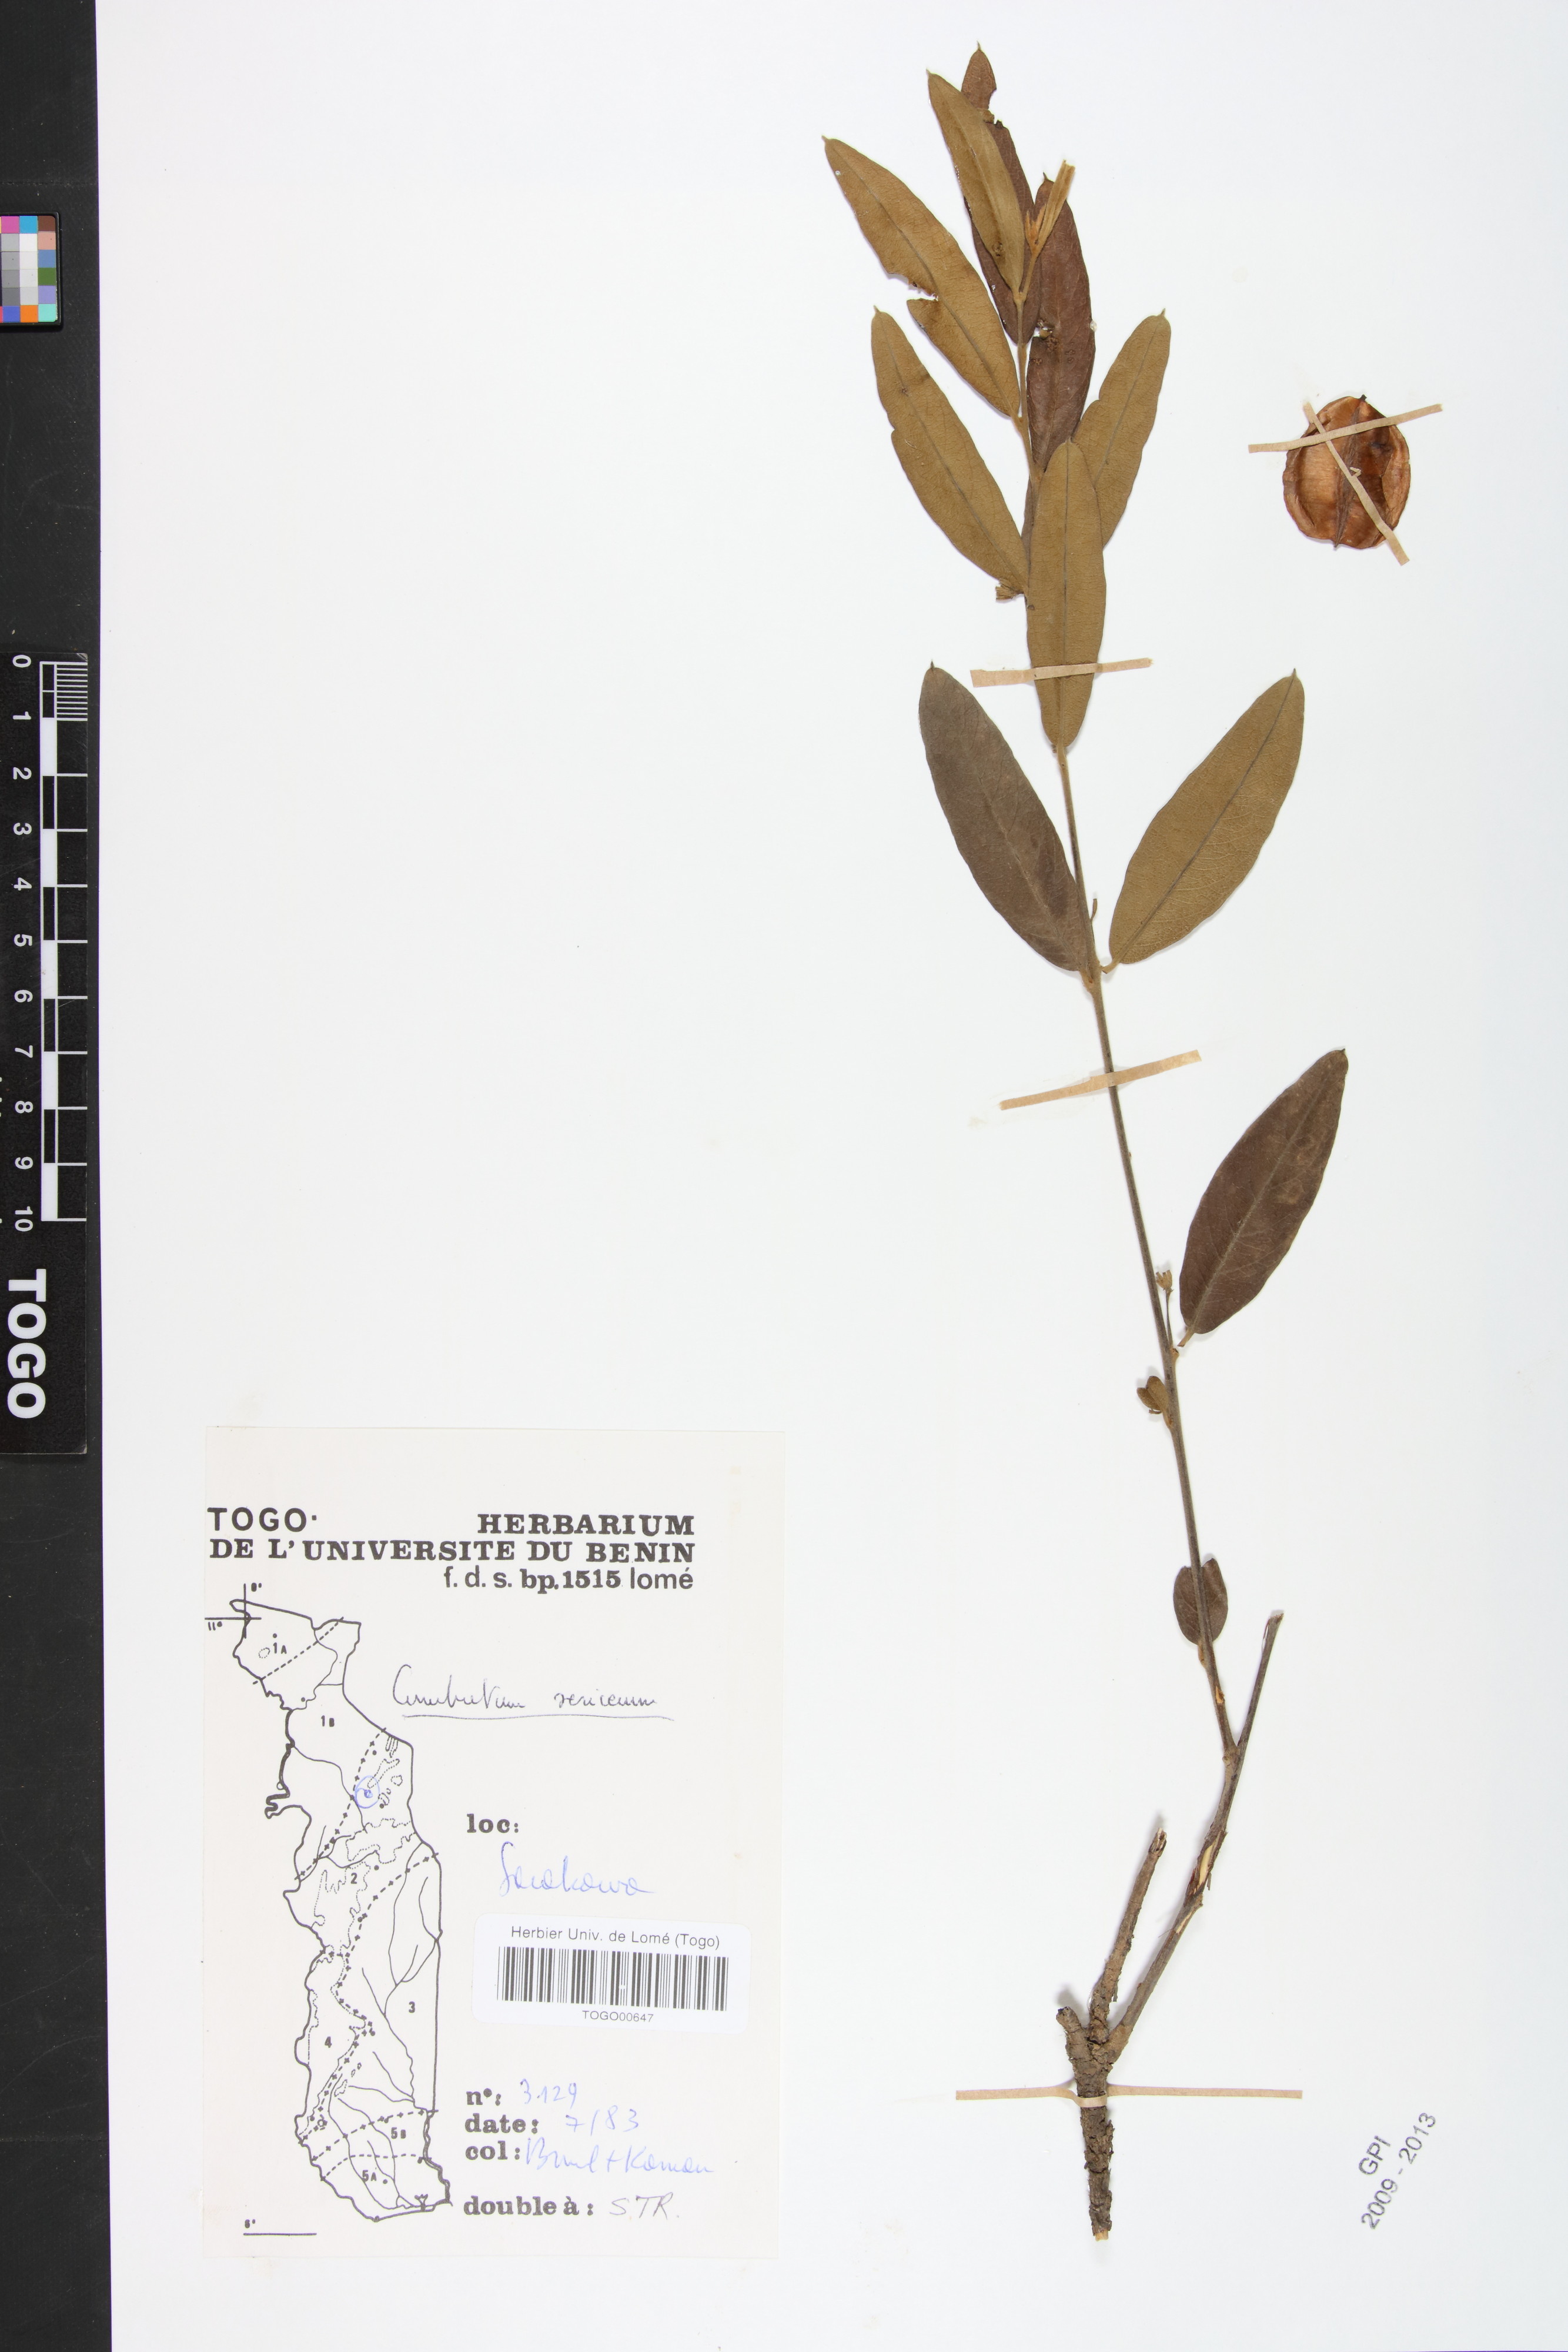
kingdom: Plantae
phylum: Tracheophyta
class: Magnoliopsida
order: Myrtales
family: Combretaceae
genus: Combretum
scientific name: Combretum sericeum
